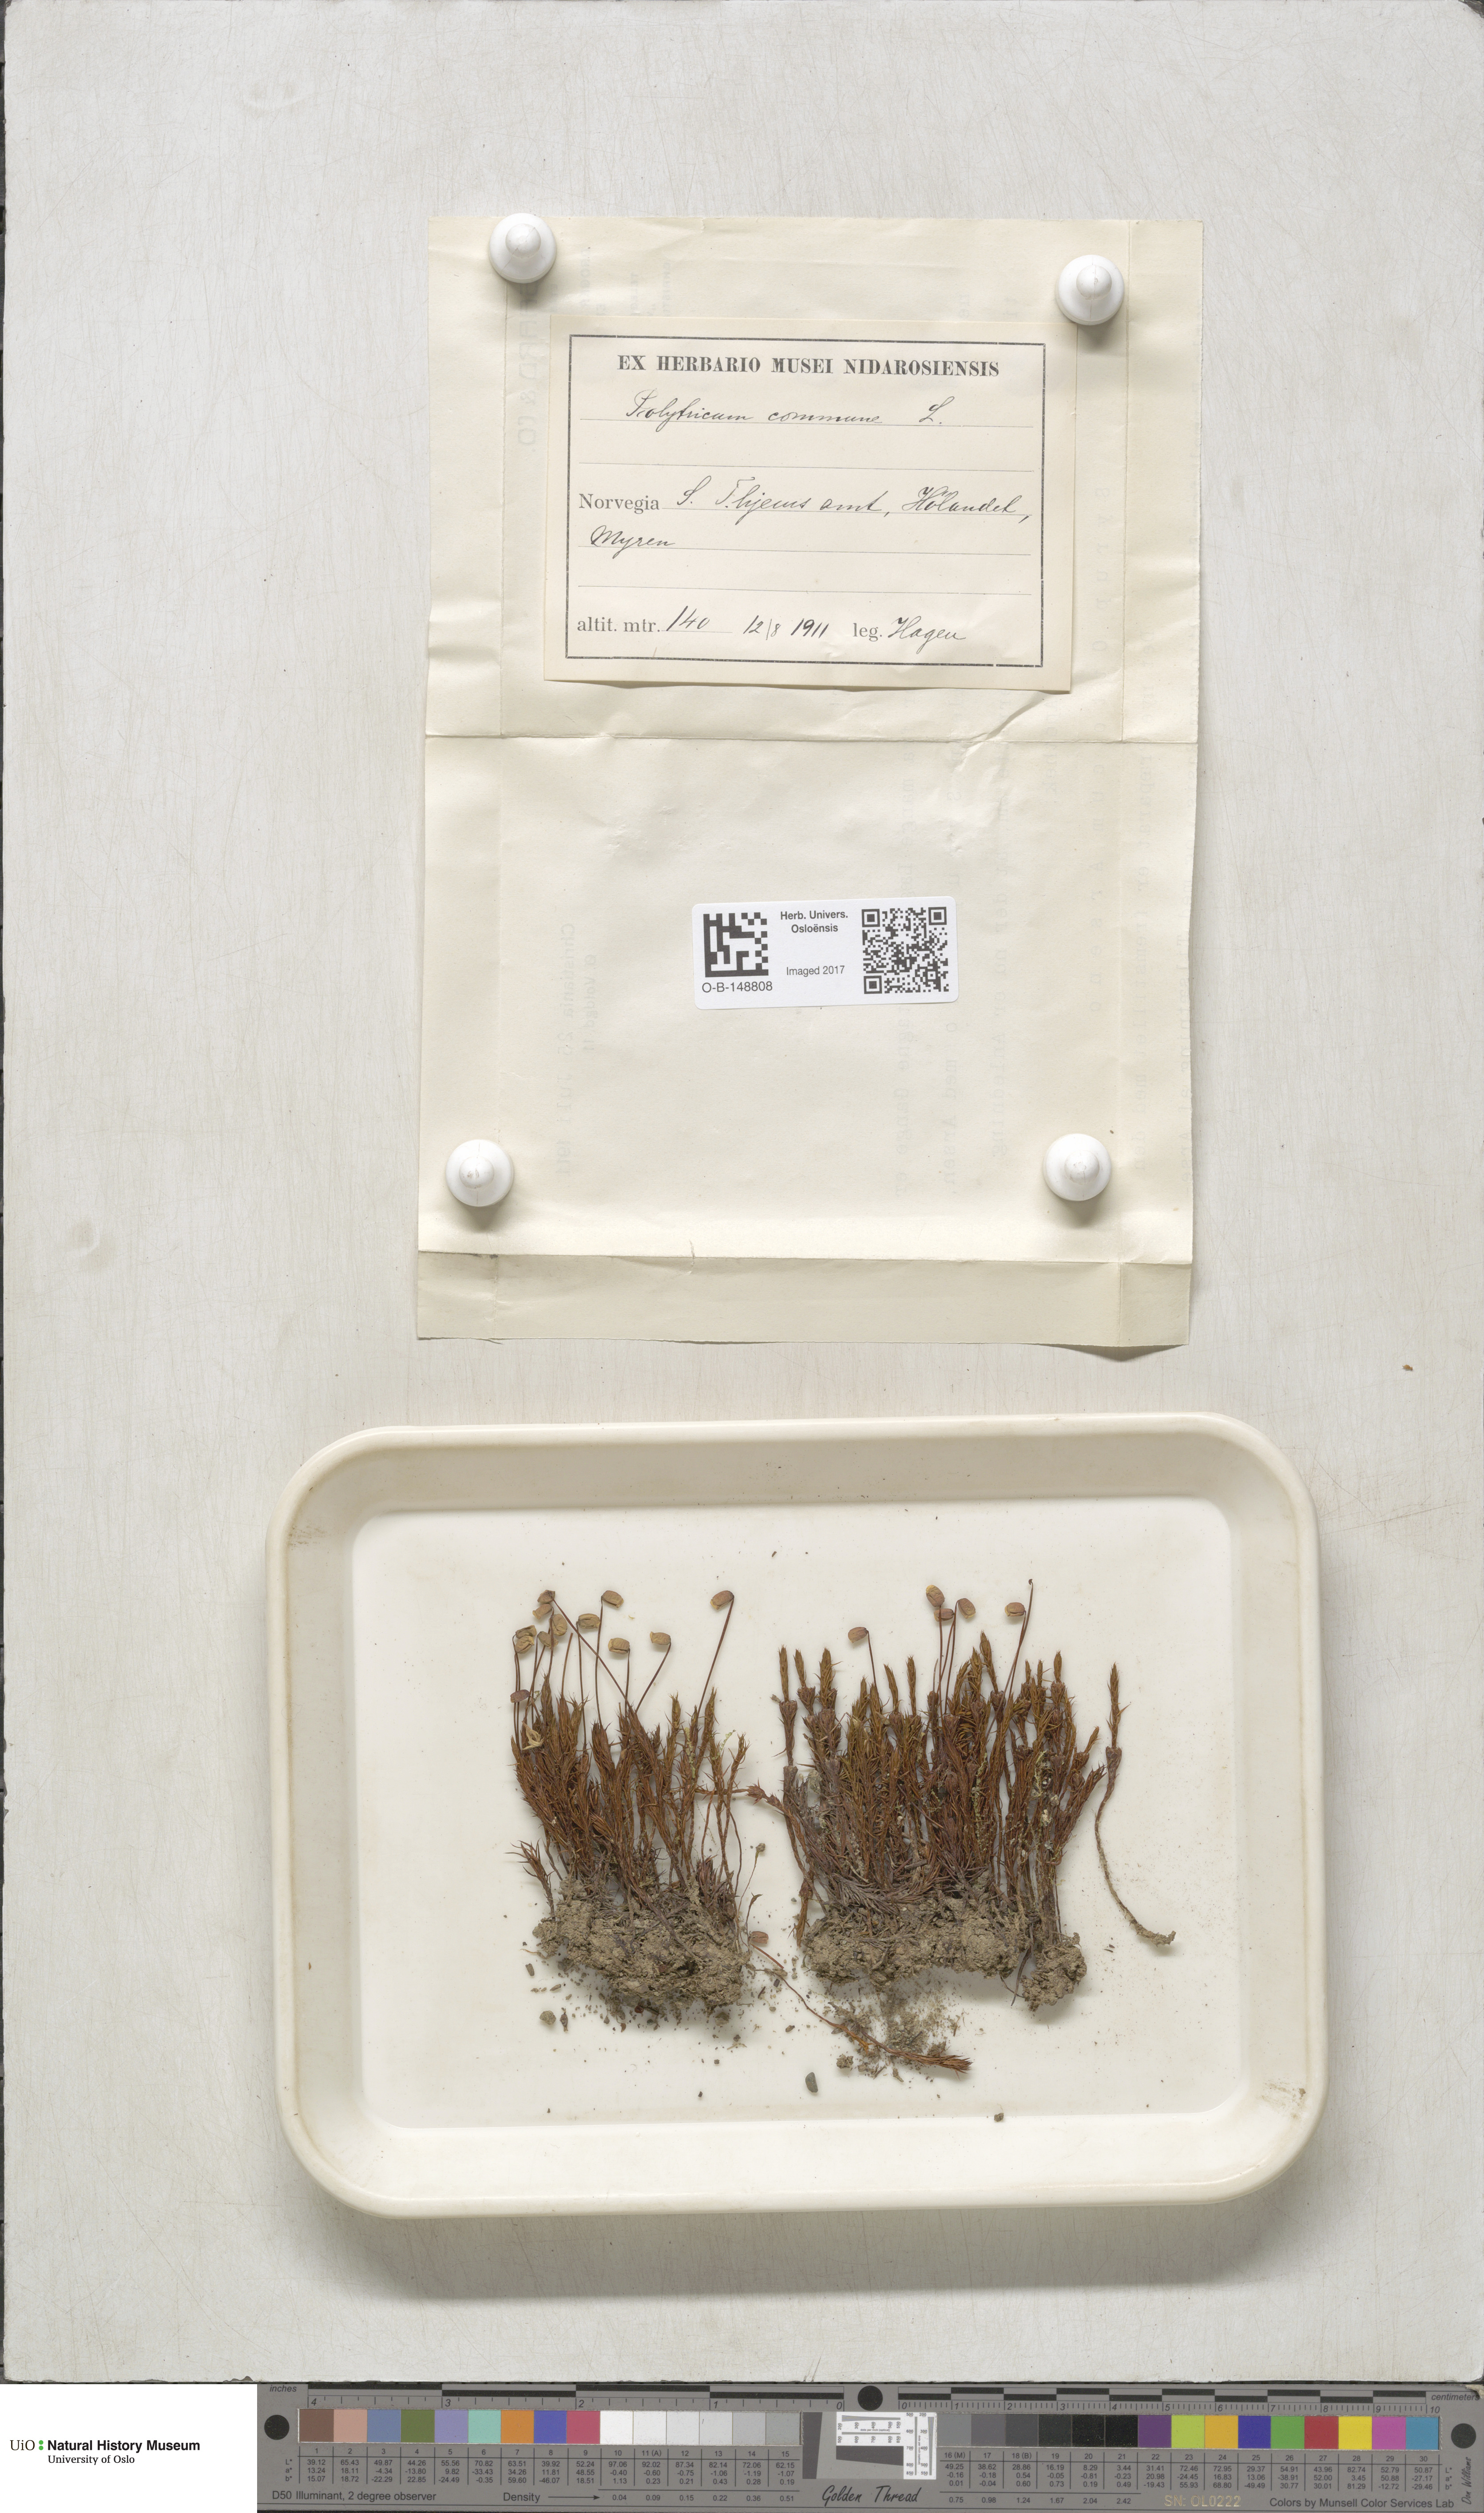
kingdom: Plantae
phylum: Bryophyta
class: Polytrichopsida
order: Polytrichales
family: Polytrichaceae
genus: Polytrichum
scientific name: Polytrichum commune
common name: Common haircap
